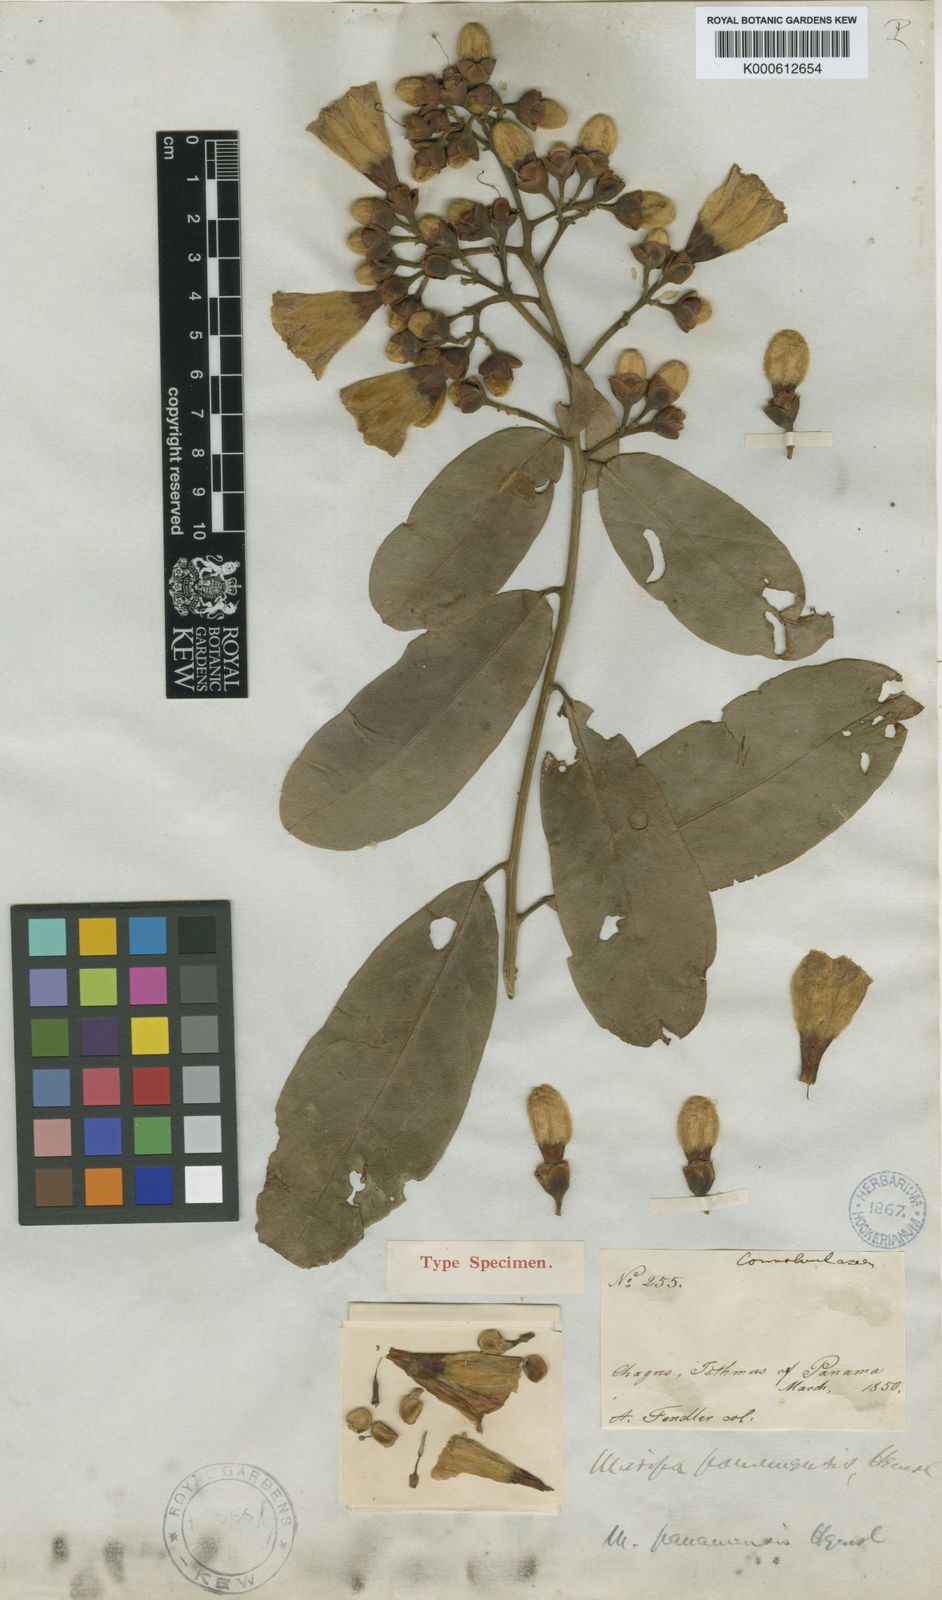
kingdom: Plantae
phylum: Tracheophyta
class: Magnoliopsida
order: Solanales
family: Convolvulaceae
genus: Maripa
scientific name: Maripa panamensis
